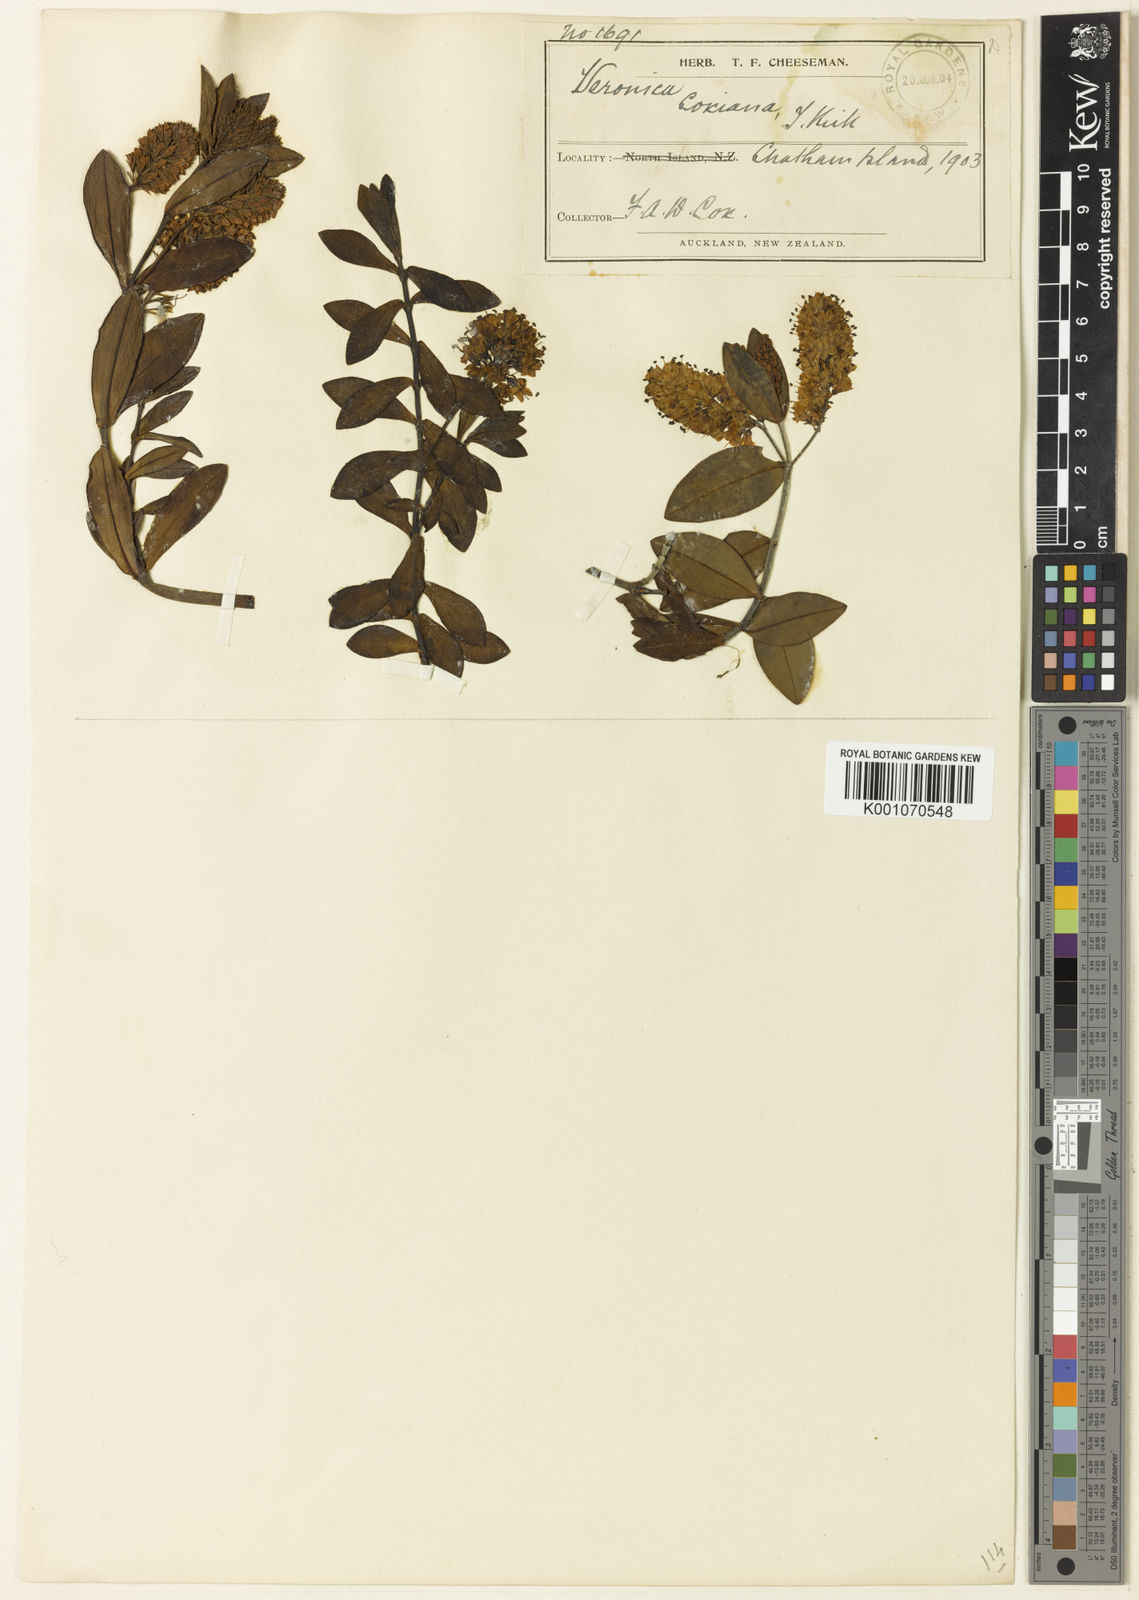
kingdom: Plantae
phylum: Tracheophyta
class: Magnoliopsida
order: Lamiales
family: Plantaginaceae
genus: Veronica
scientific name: Veronica chathamica
